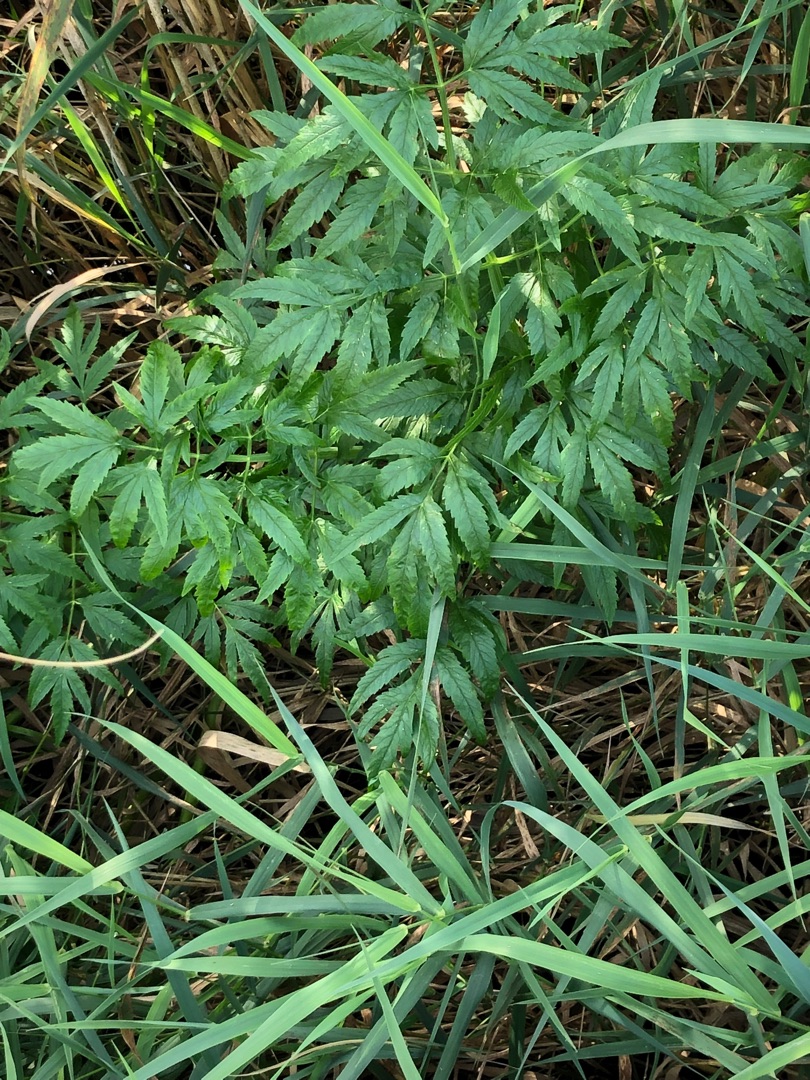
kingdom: Plantae
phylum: Tracheophyta
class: Magnoliopsida
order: Apiales
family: Apiaceae
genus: Cicuta
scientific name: Cicuta virosa
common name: Gifttyde
